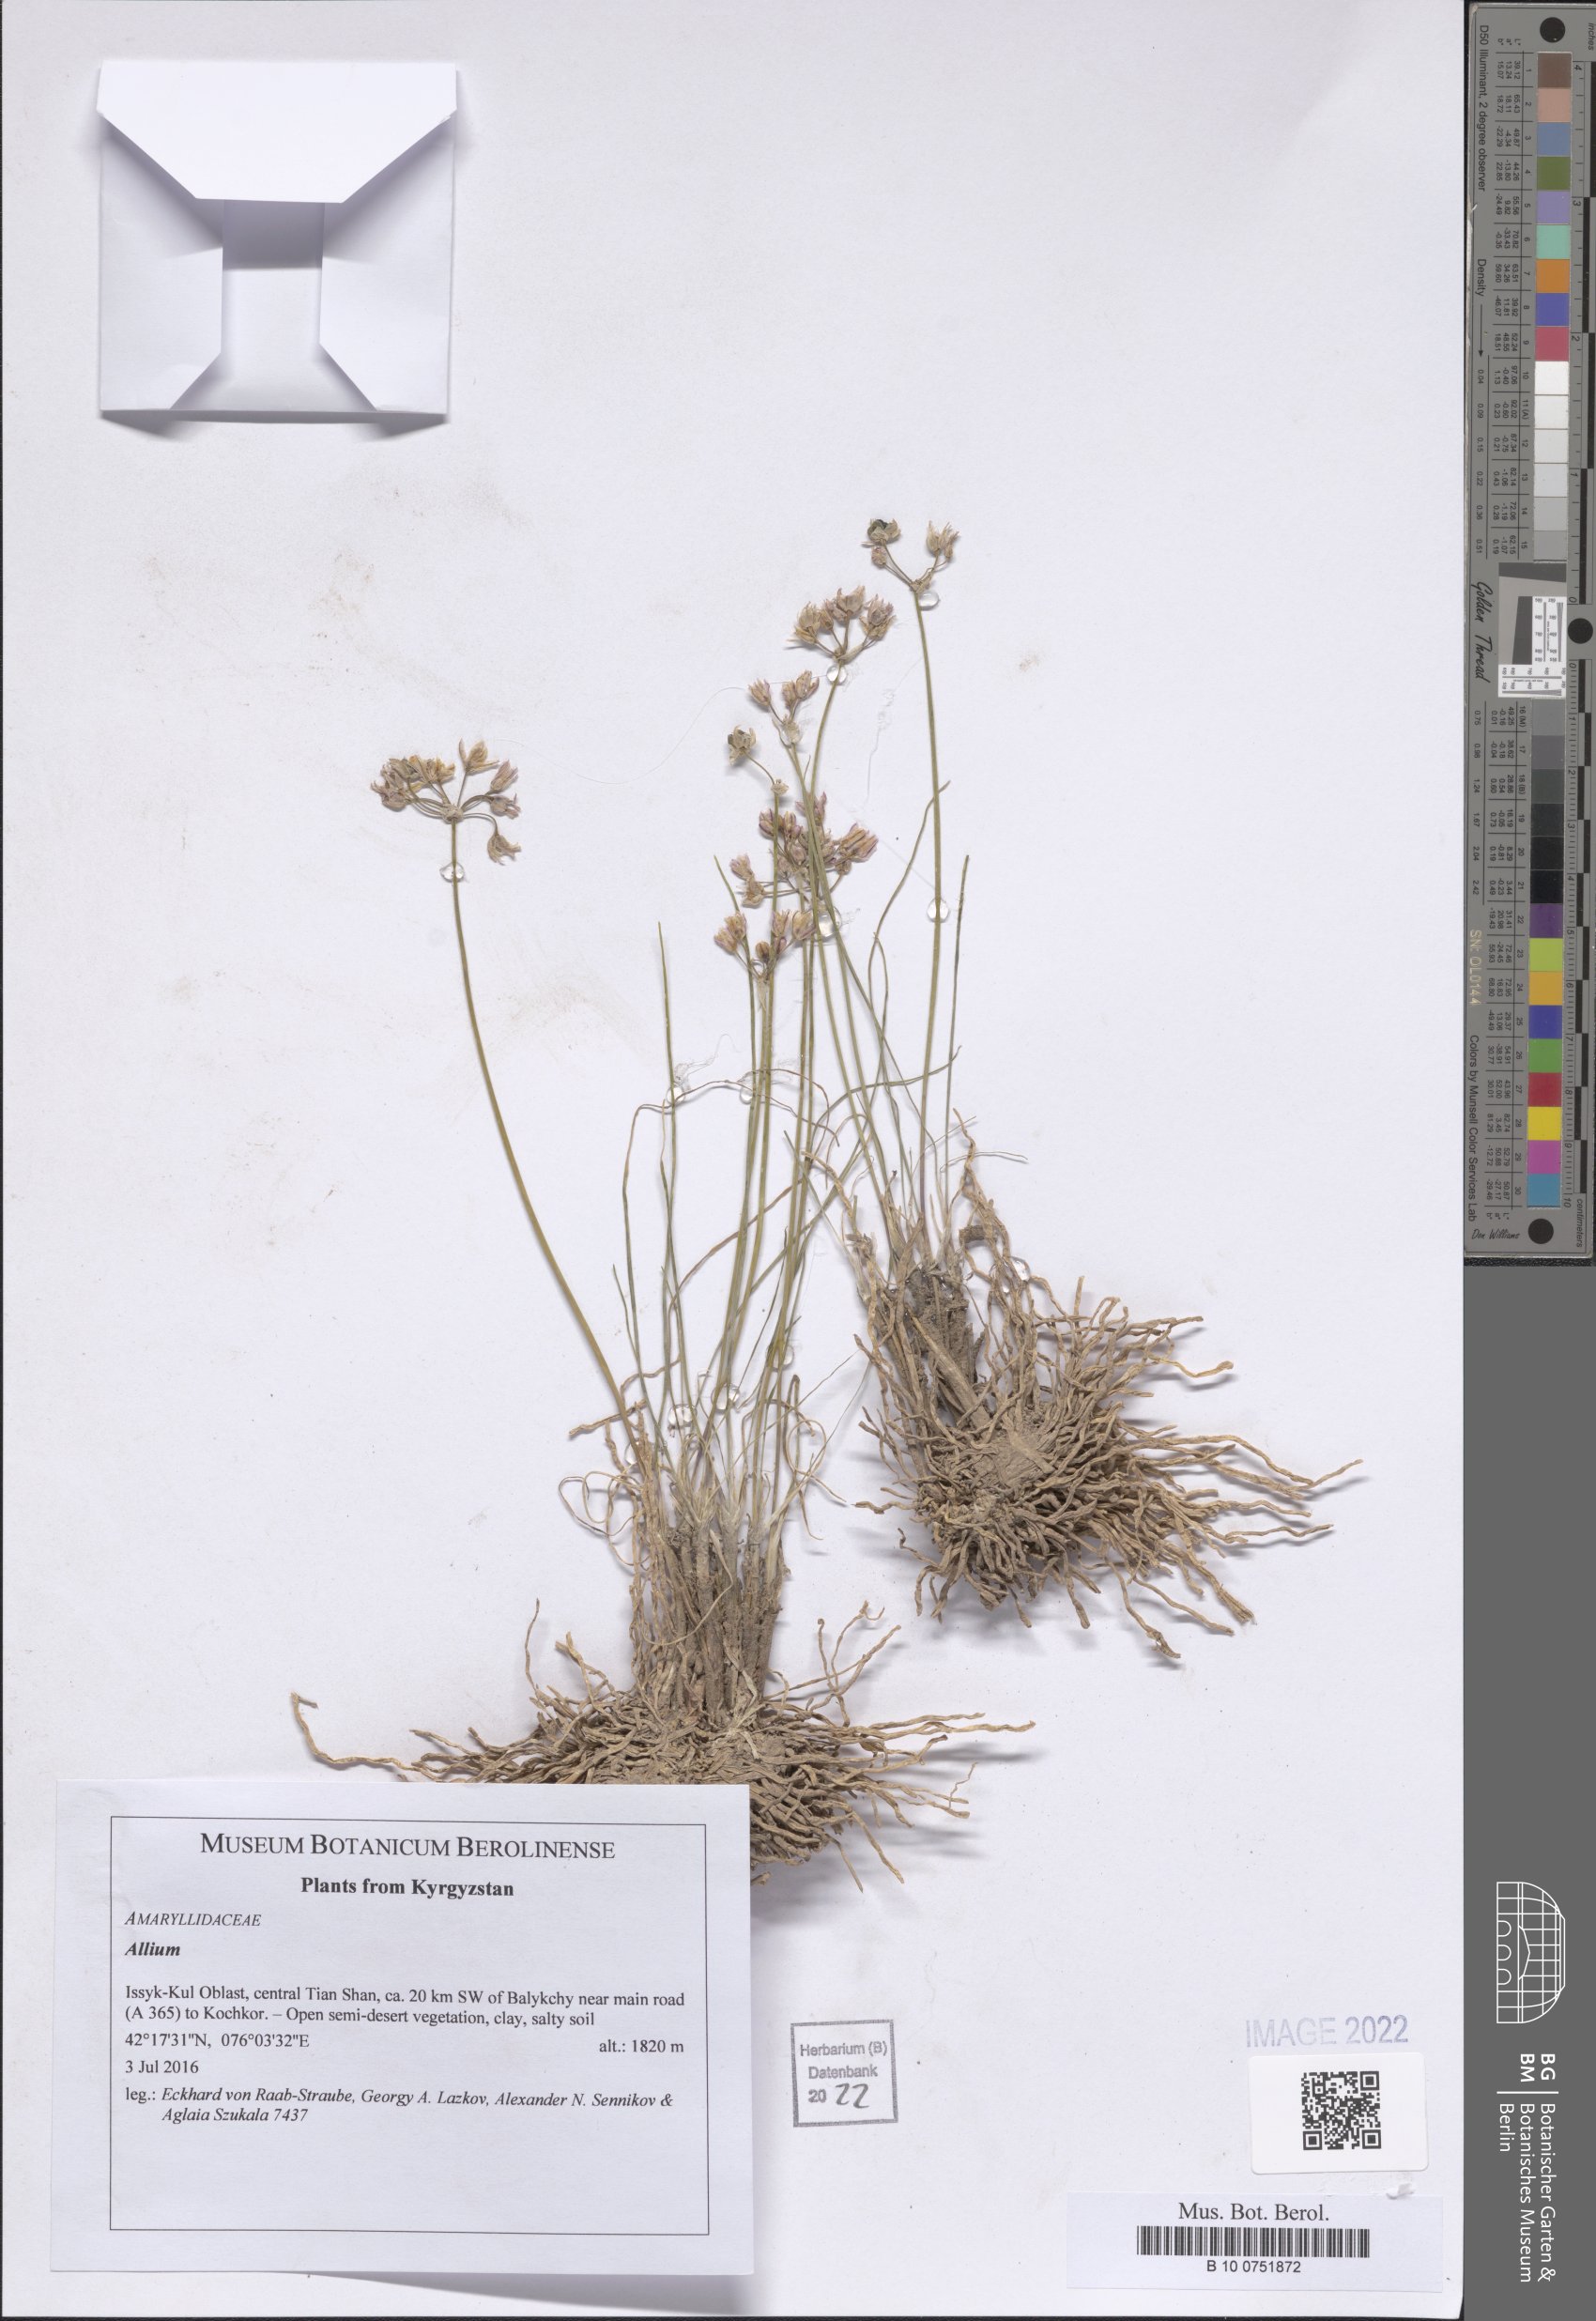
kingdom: Plantae
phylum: Tracheophyta
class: Liliopsida
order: Asparagales
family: Amaryllidaceae
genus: Allium
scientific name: Allium
